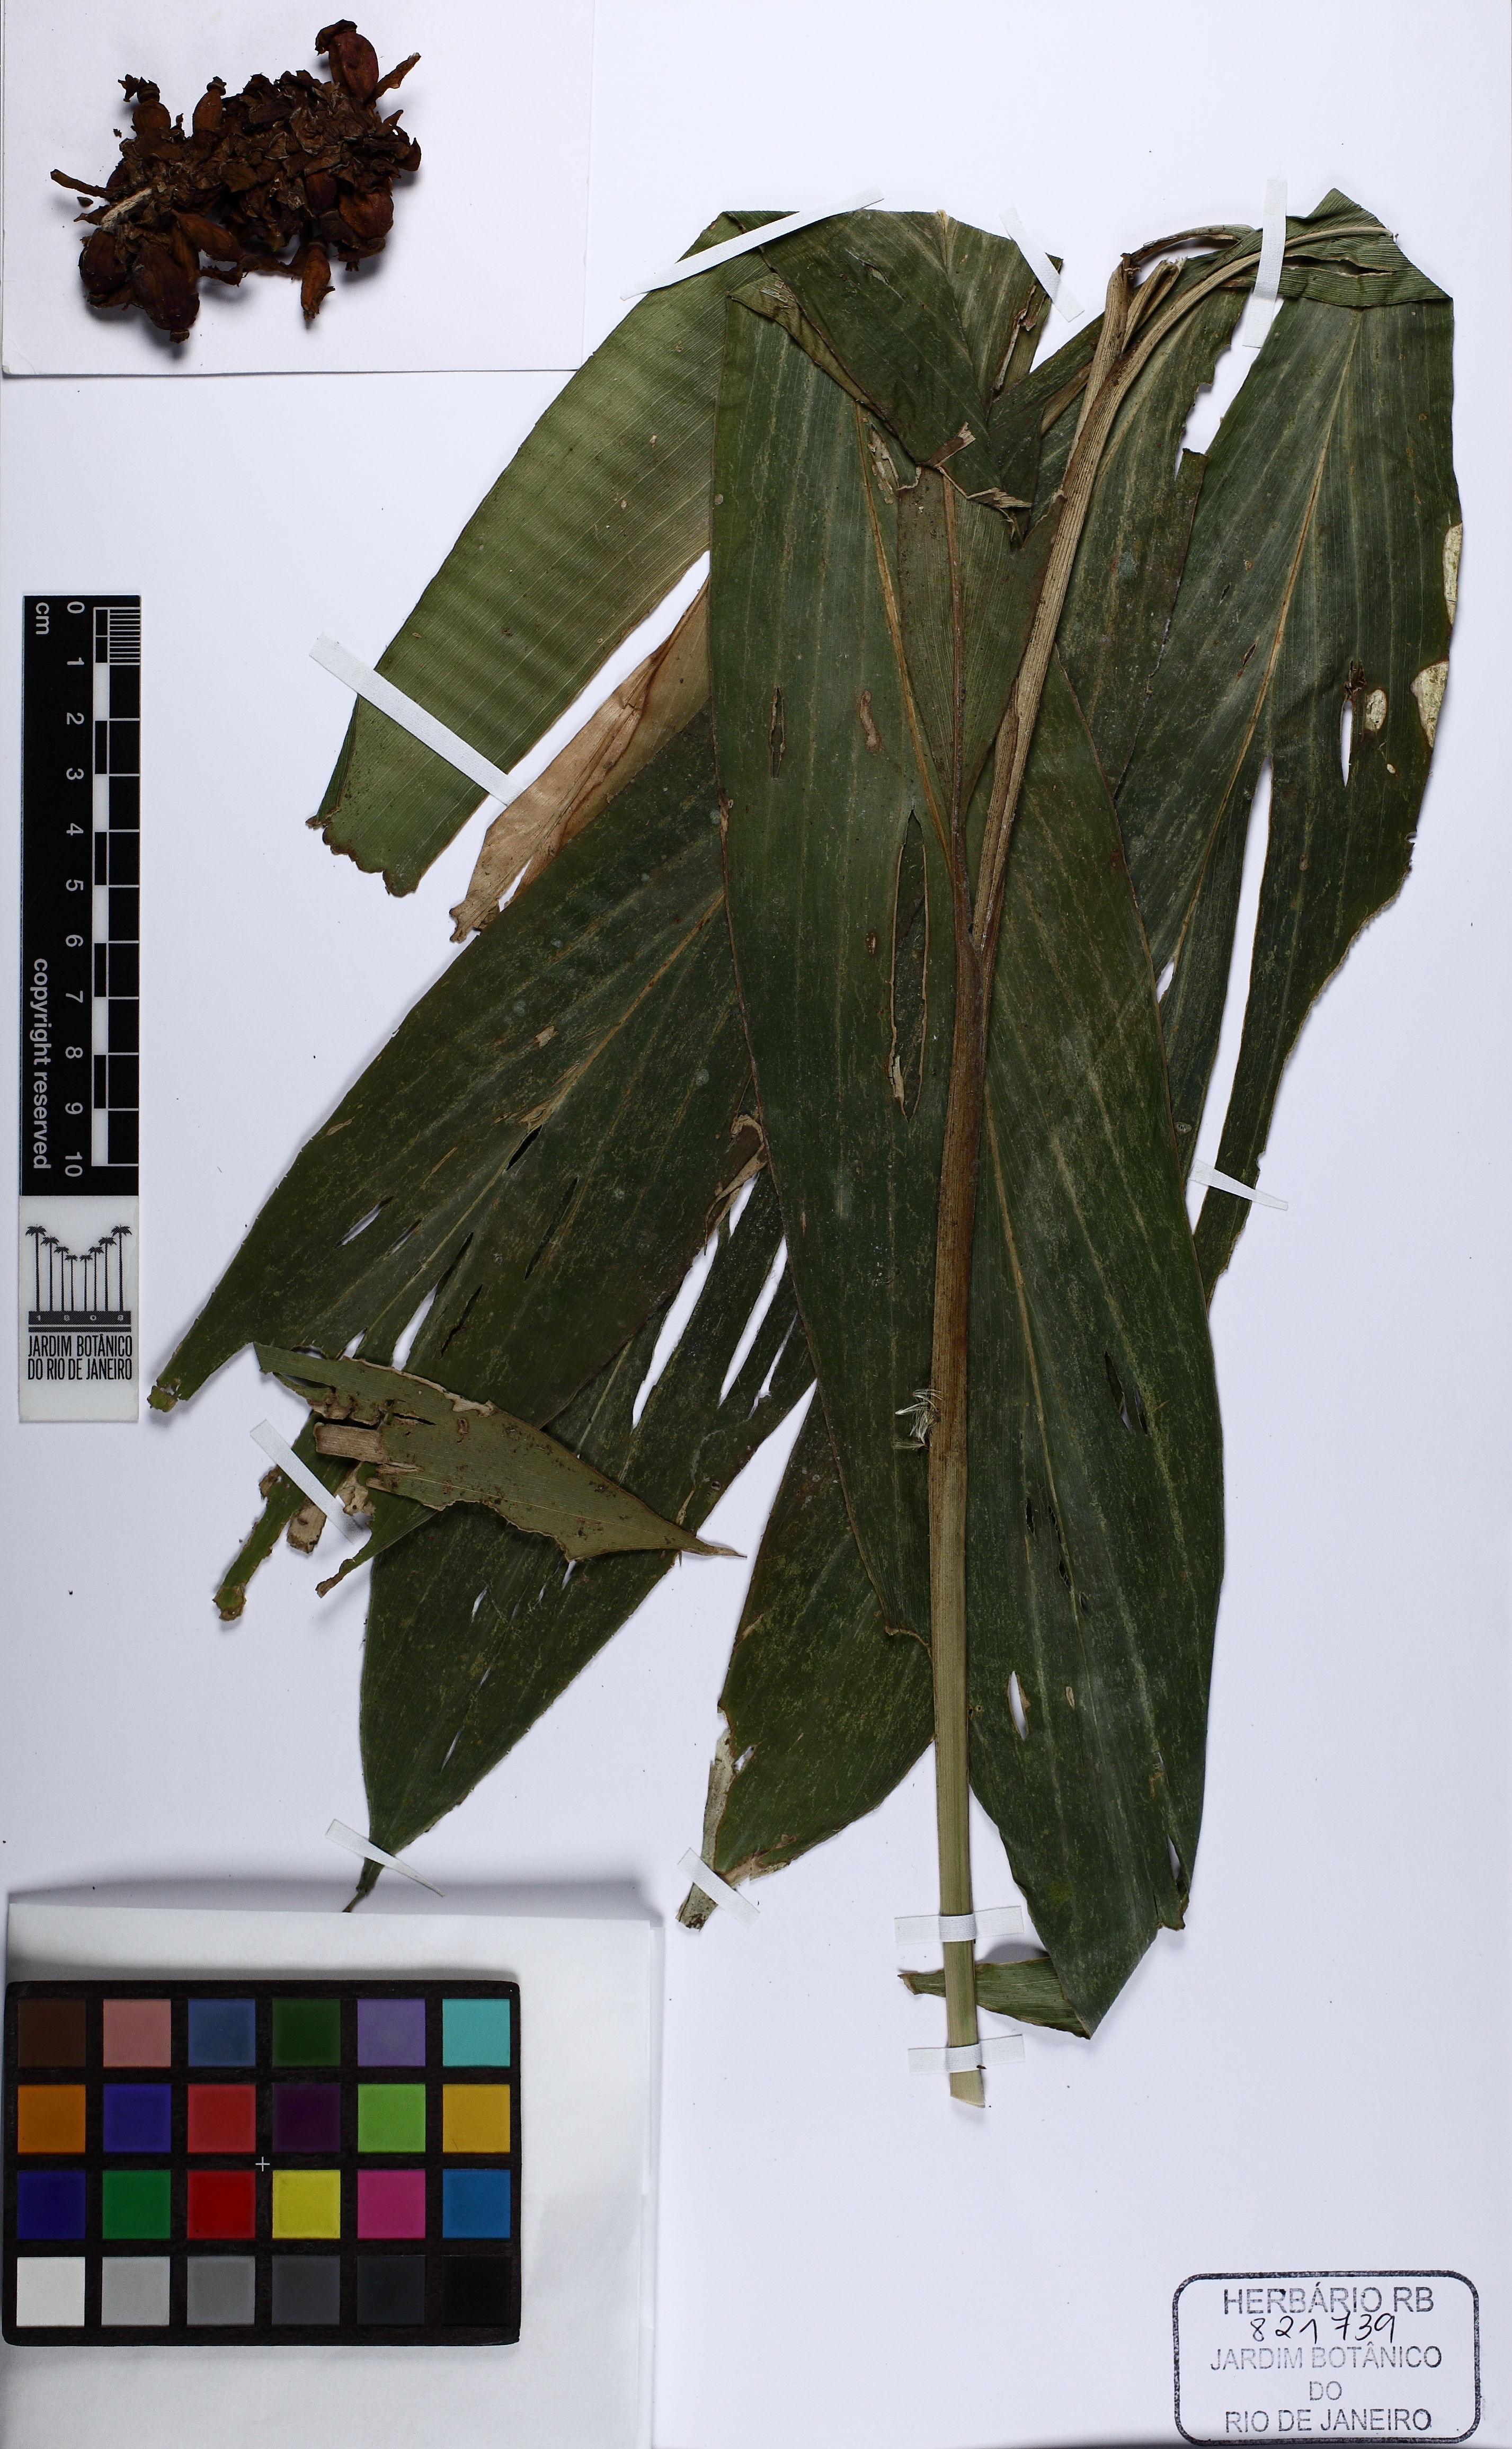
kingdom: Plantae
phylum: Tracheophyta
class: Liliopsida
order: Zingiberales
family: Marantaceae
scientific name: Marantaceae
